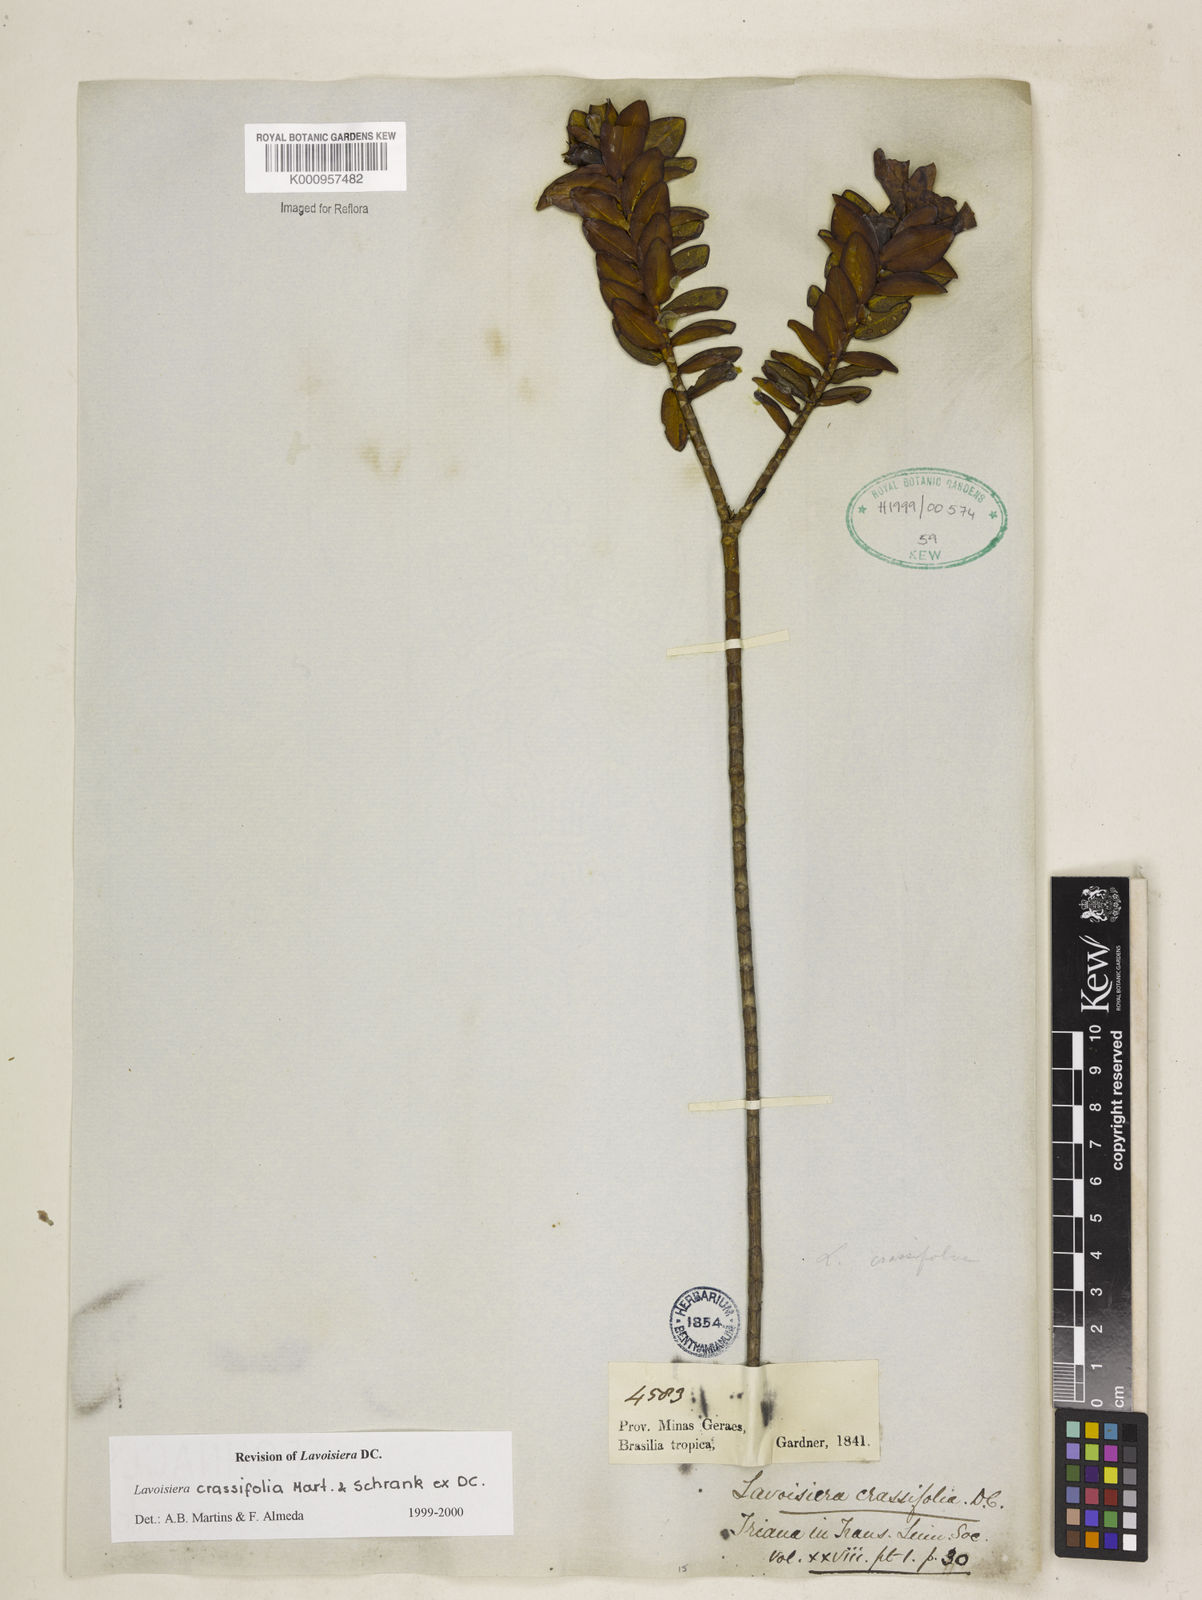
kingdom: Plantae
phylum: Tracheophyta
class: Magnoliopsida
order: Myrtales
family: Melastomataceae
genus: Microlicia
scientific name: Microlicia crassifolia
